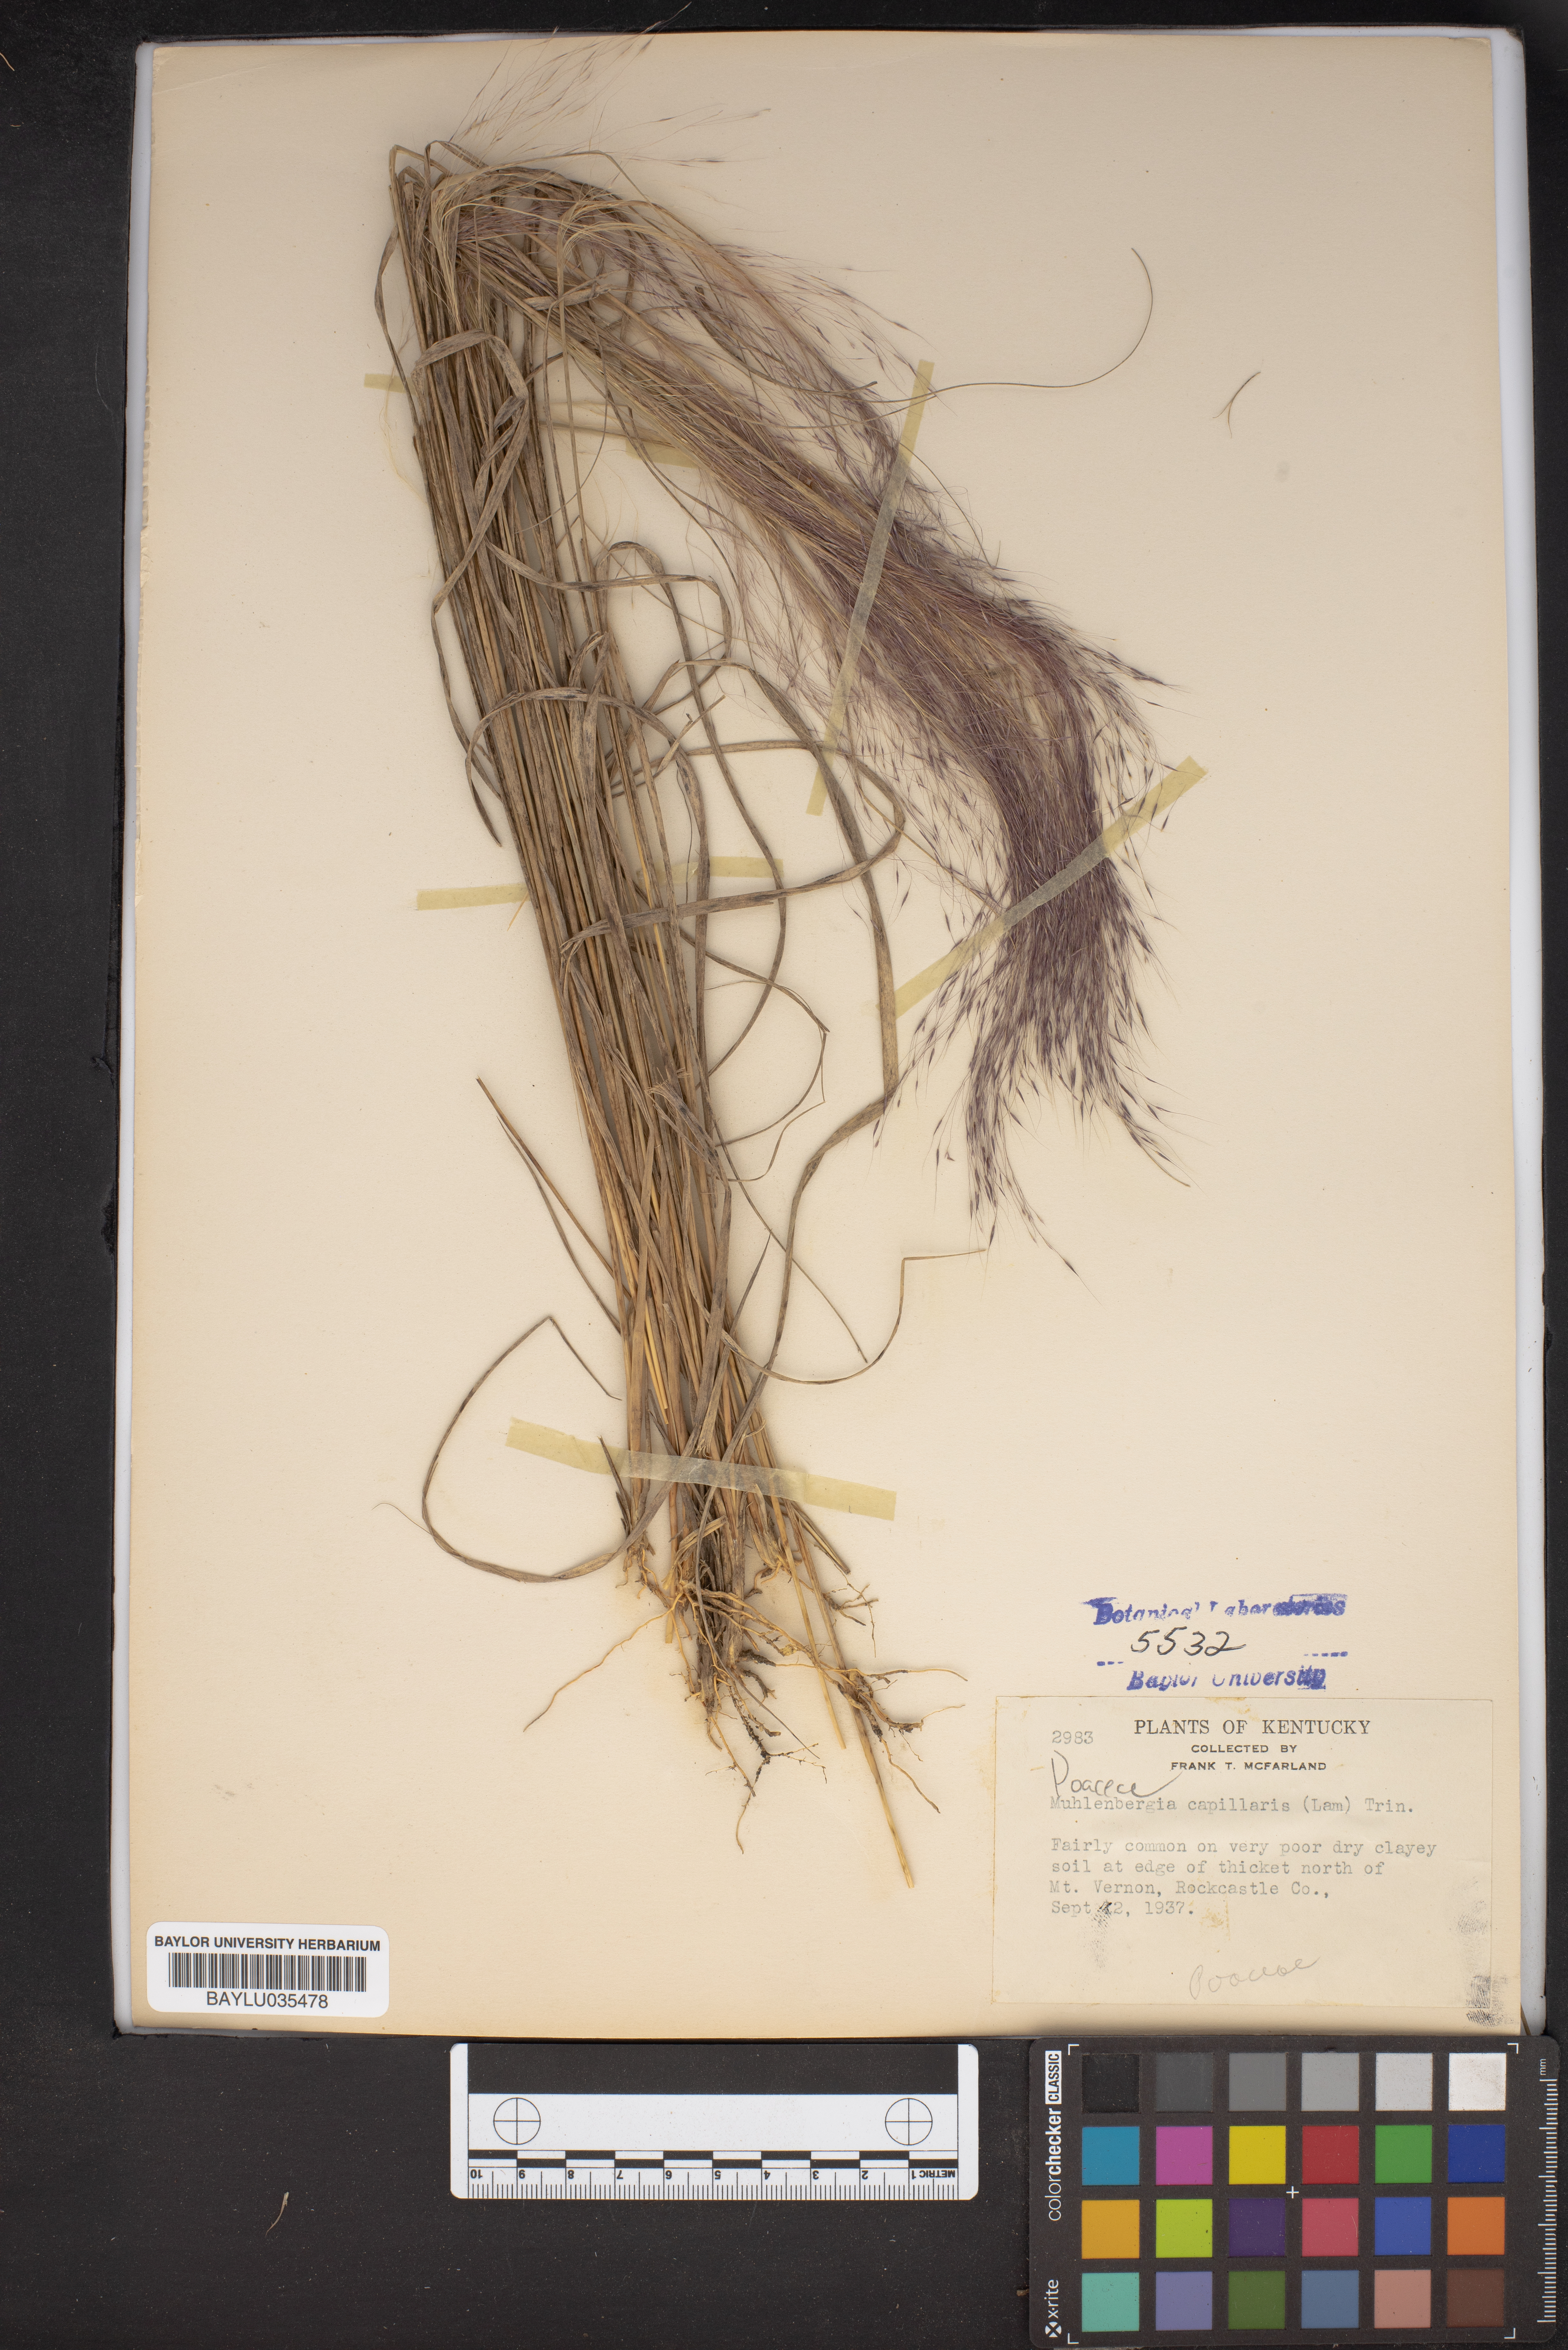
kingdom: Plantae
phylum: Tracheophyta
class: Liliopsida
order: Poales
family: Poaceae
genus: Muhlenbergia
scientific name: Muhlenbergia capillaris
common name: Purple grass
